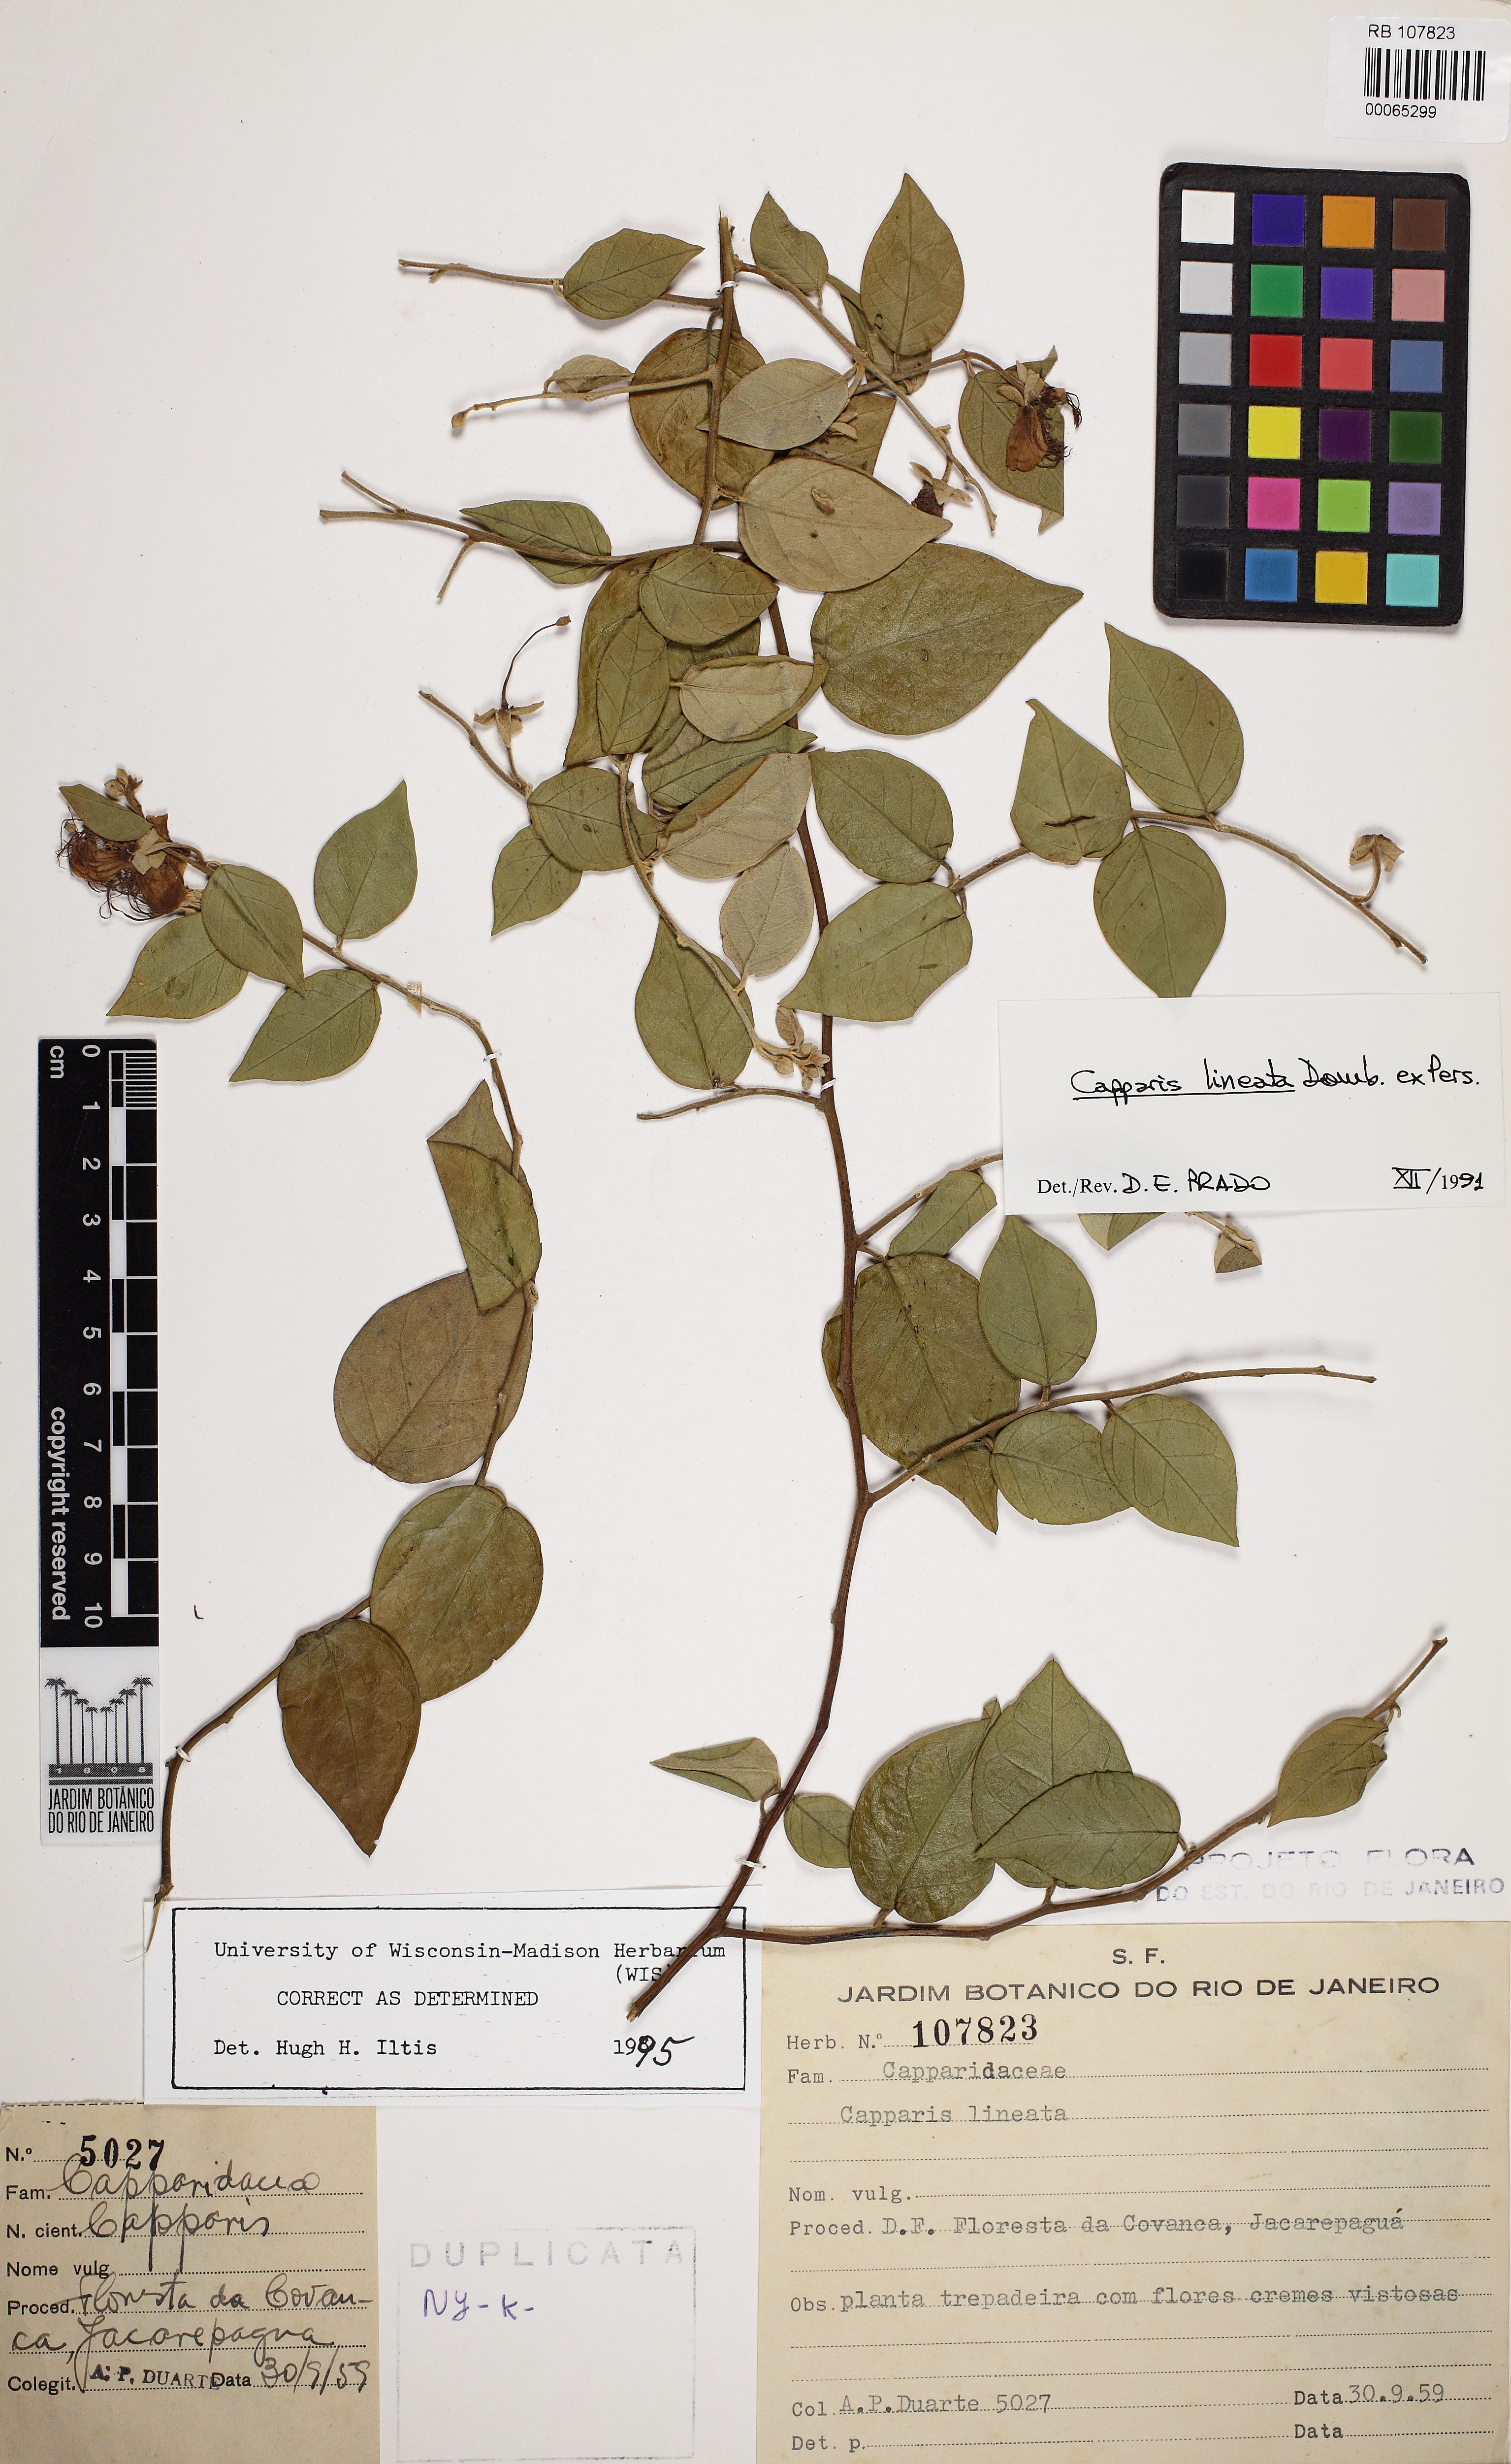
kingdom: Plantae
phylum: Tracheophyta
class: Magnoliopsida
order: Brassicales
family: Capparaceae
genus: Mesocapparis
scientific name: Mesocapparis lineata
